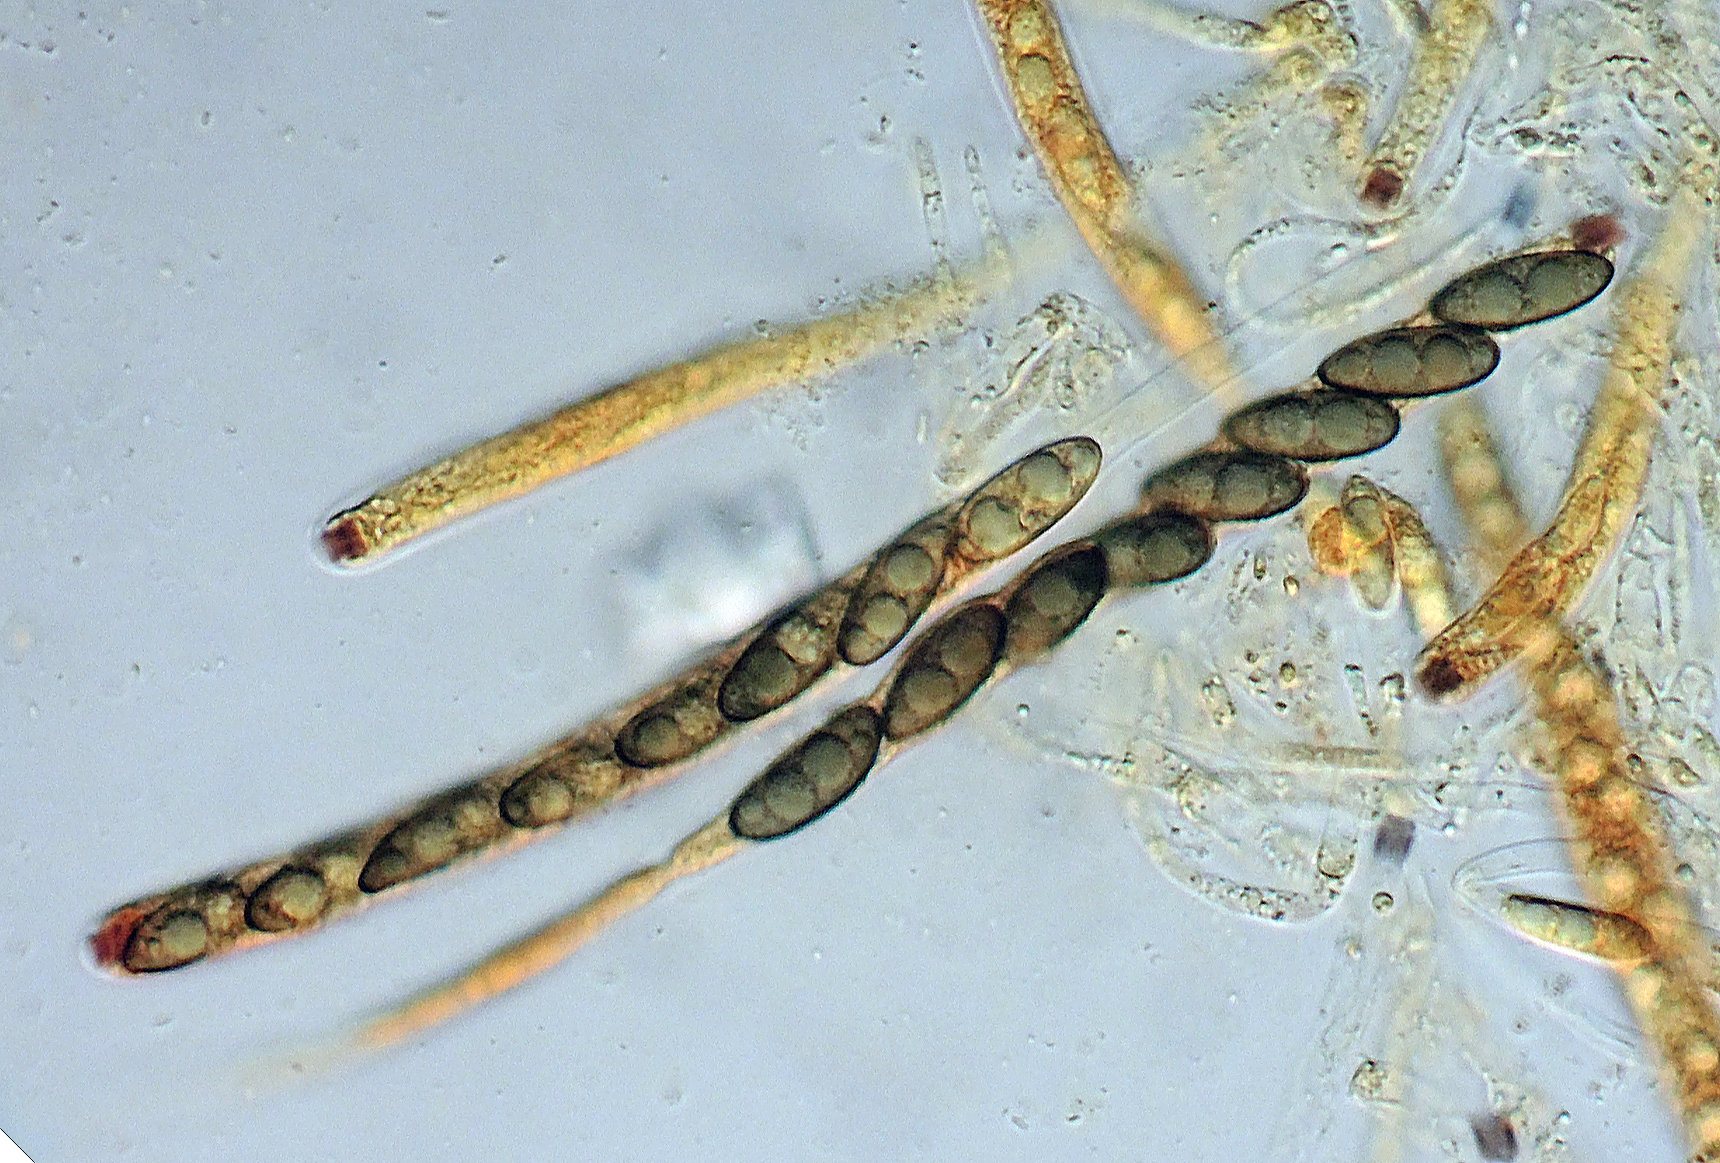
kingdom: Fungi
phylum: Ascomycota
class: Sordariomycetes
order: Xylariales
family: Xylariaceae
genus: Nemania
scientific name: Nemania
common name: kuldyne
